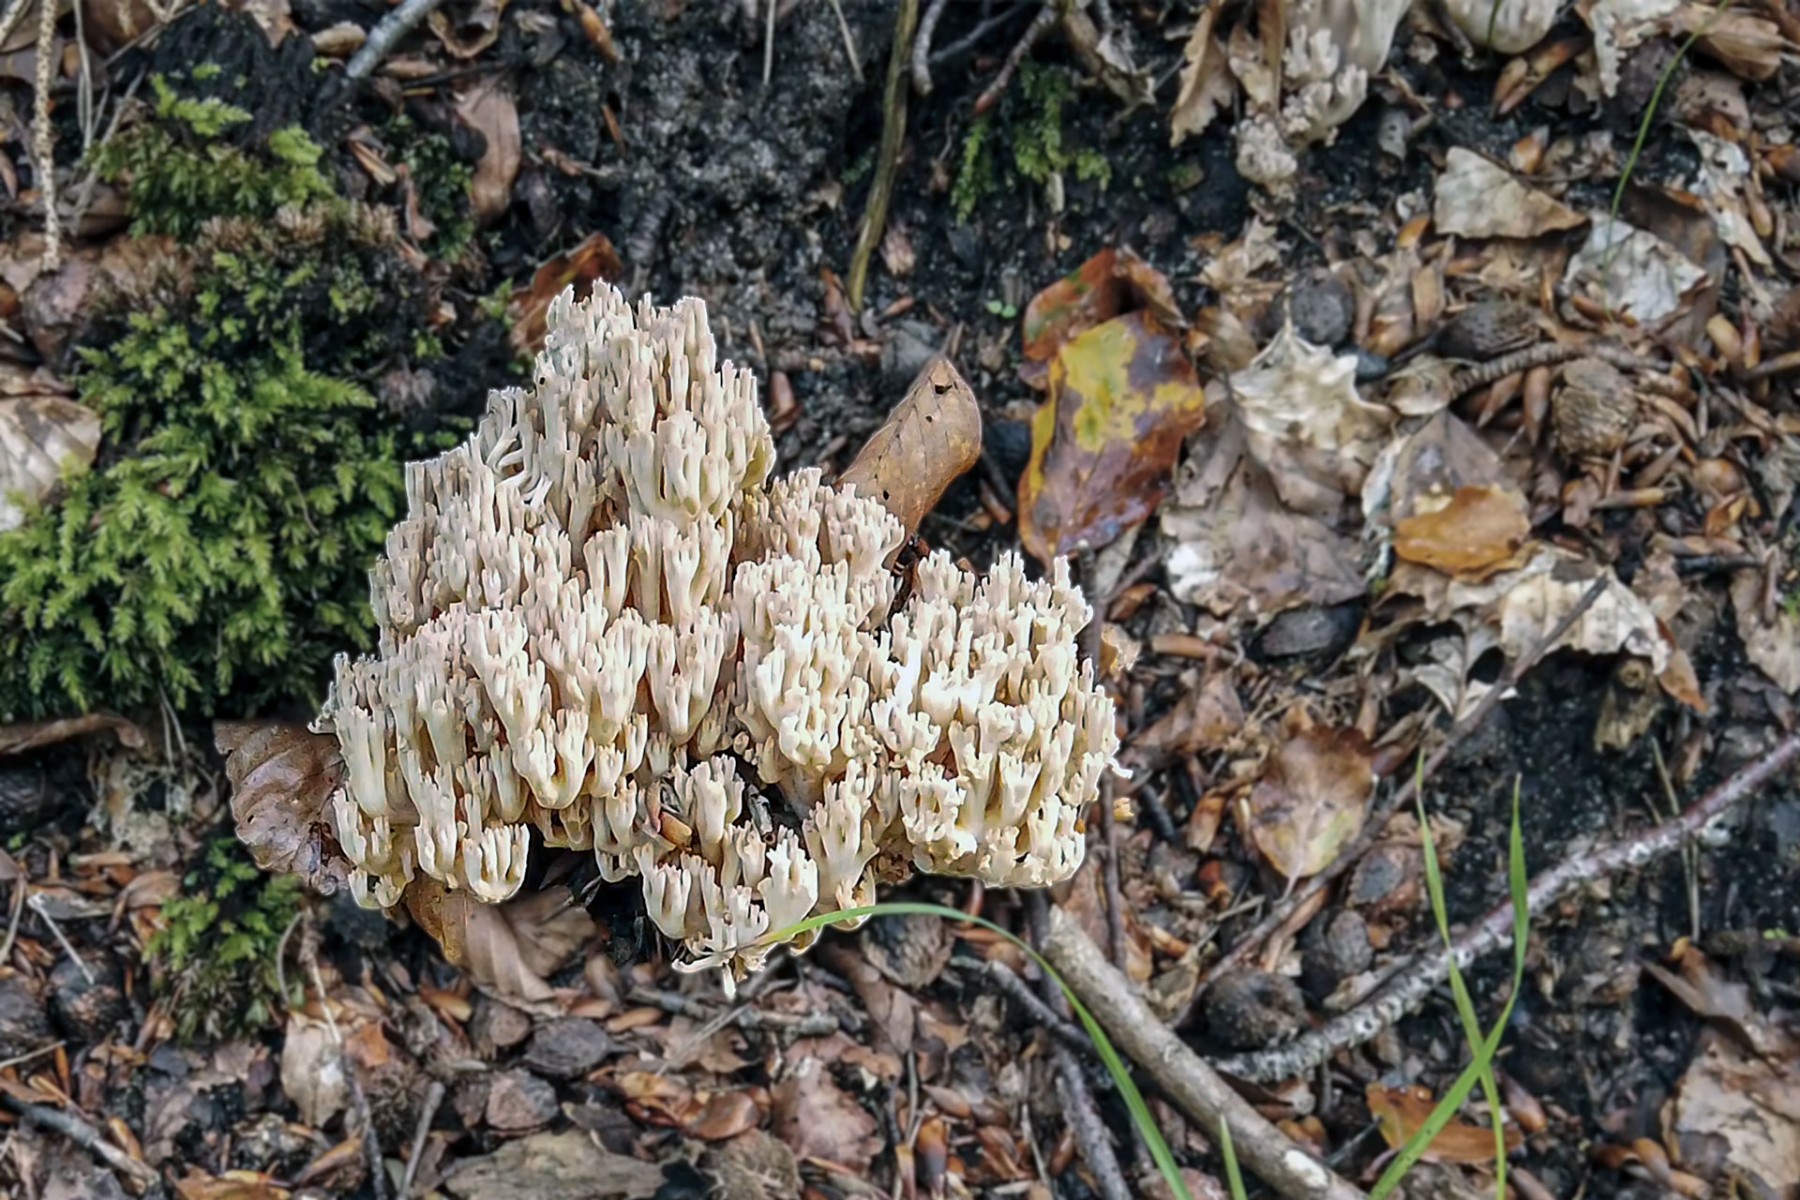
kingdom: Fungi
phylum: Basidiomycota
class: Agaricomycetes
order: Gomphales
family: Gomphaceae
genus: Ramaria
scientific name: Ramaria
